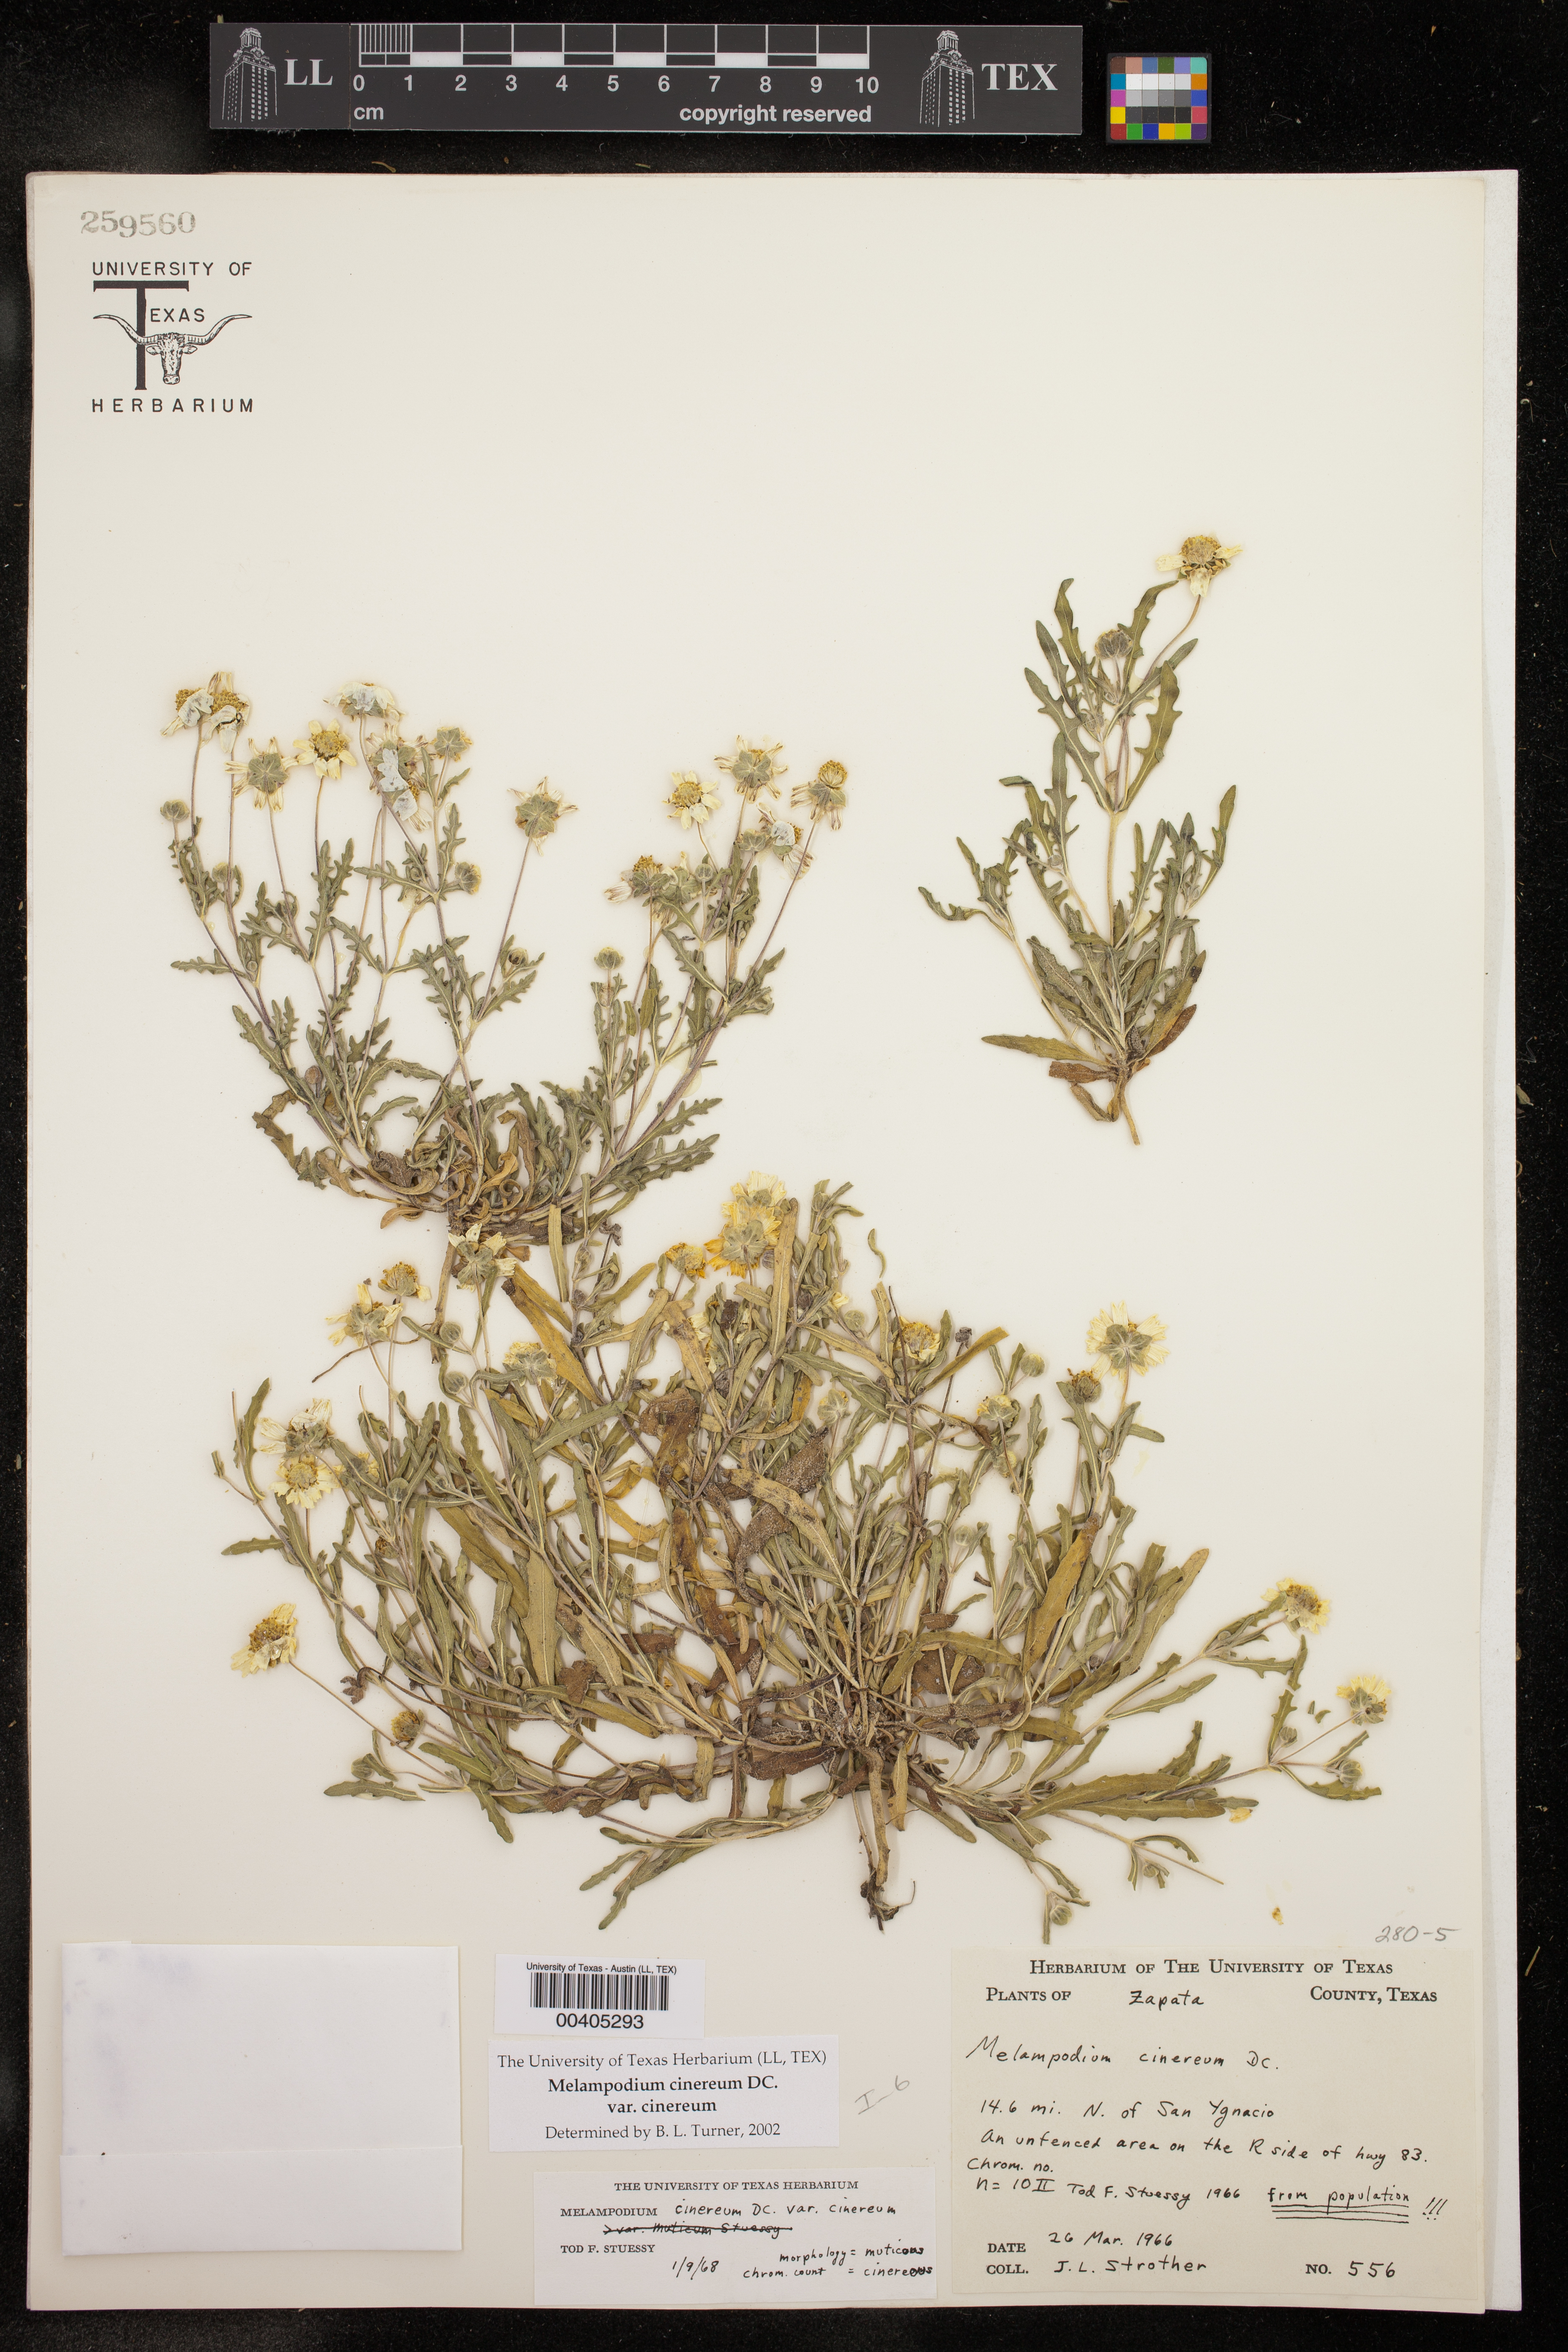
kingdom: Plantae
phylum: Tracheophyta
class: Magnoliopsida
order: Asterales
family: Asteraceae
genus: Melampodium
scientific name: Melampodium cinereum
